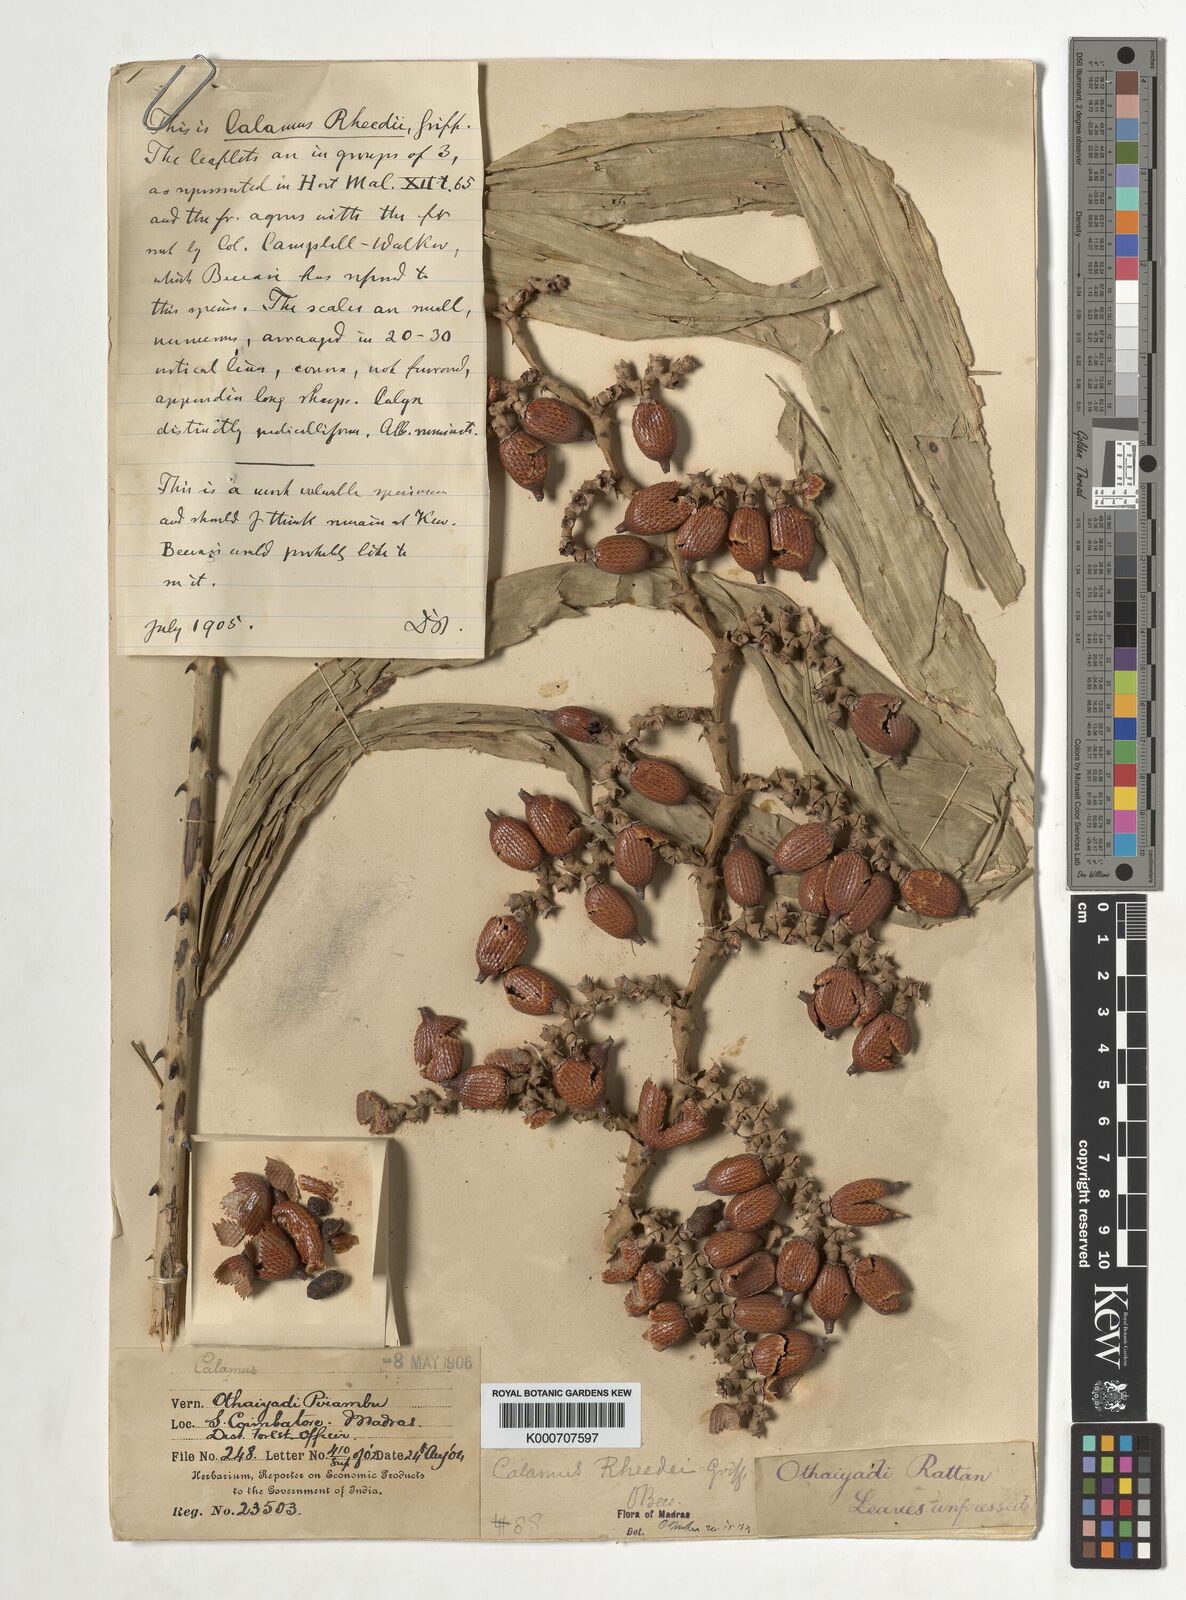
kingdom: Plantae
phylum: Tracheophyta
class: Liliopsida
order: Arecales
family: Arecaceae
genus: Calamus
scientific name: Calamus rheedei
